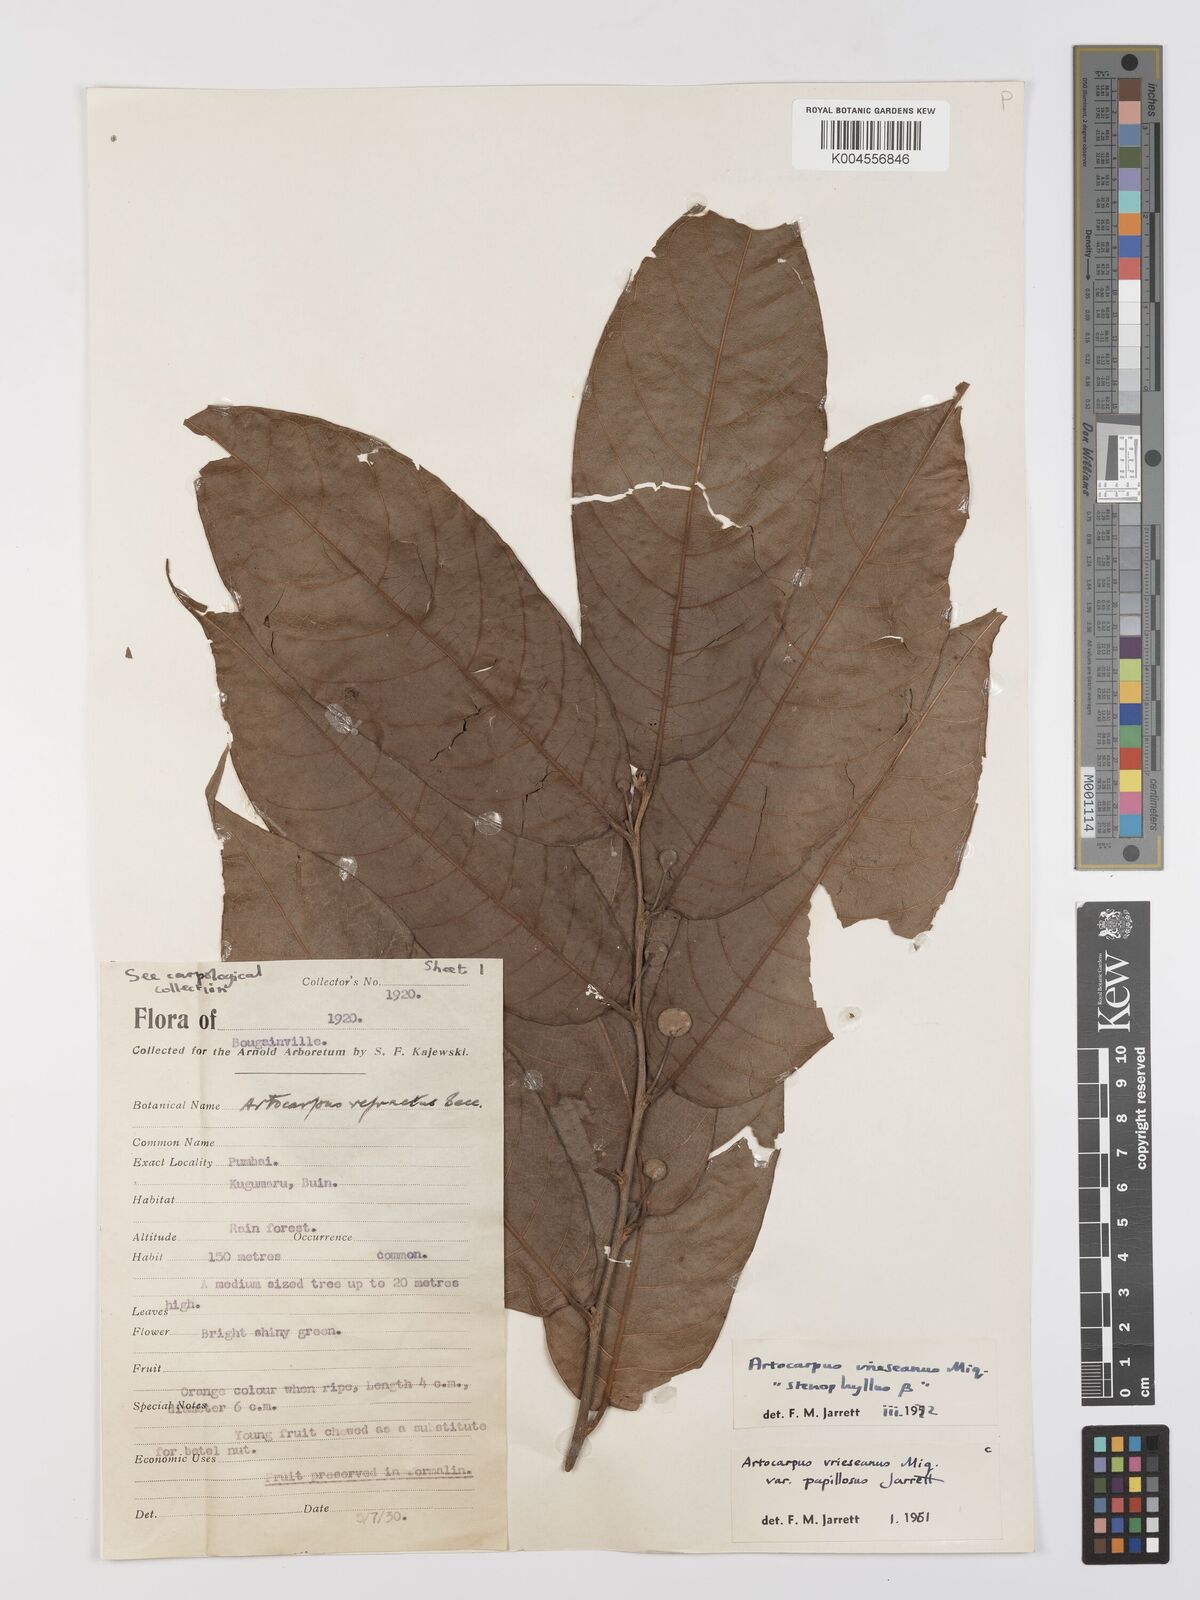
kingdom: Plantae
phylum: Tracheophyta
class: Magnoliopsida
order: Rosales
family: Moraceae
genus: Artocarpus
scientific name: Artocarpus vrieseanus
